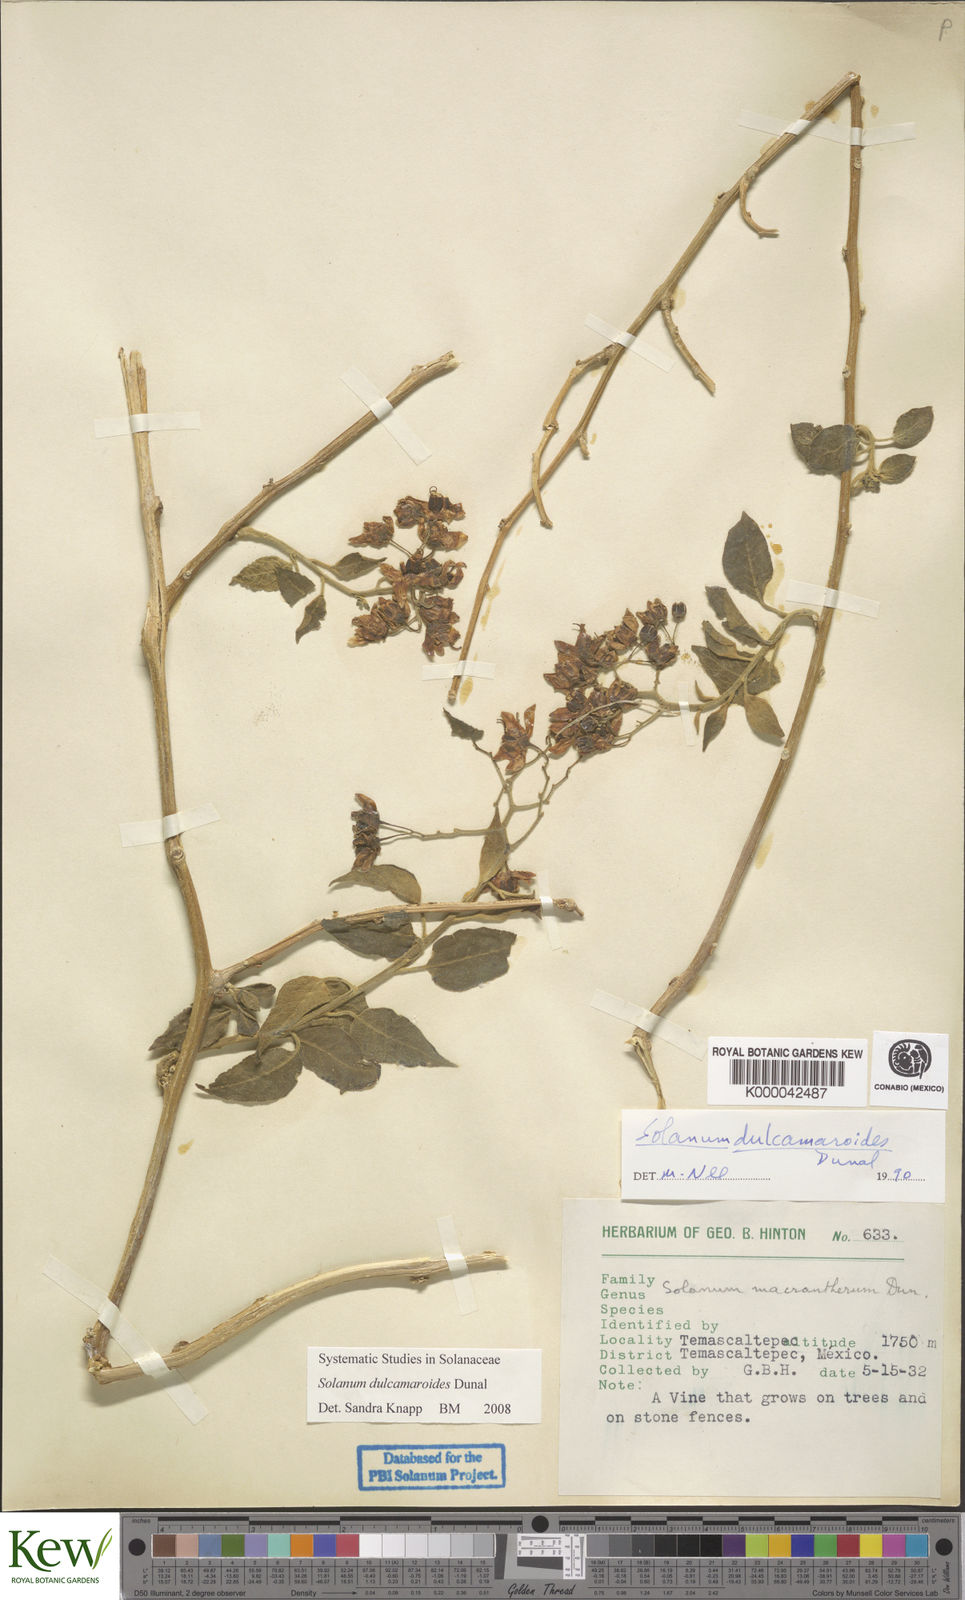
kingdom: Plantae
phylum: Tracheophyta
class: Magnoliopsida
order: Solanales
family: Solanaceae
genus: Solanum
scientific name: Solanum dulcamaroides
